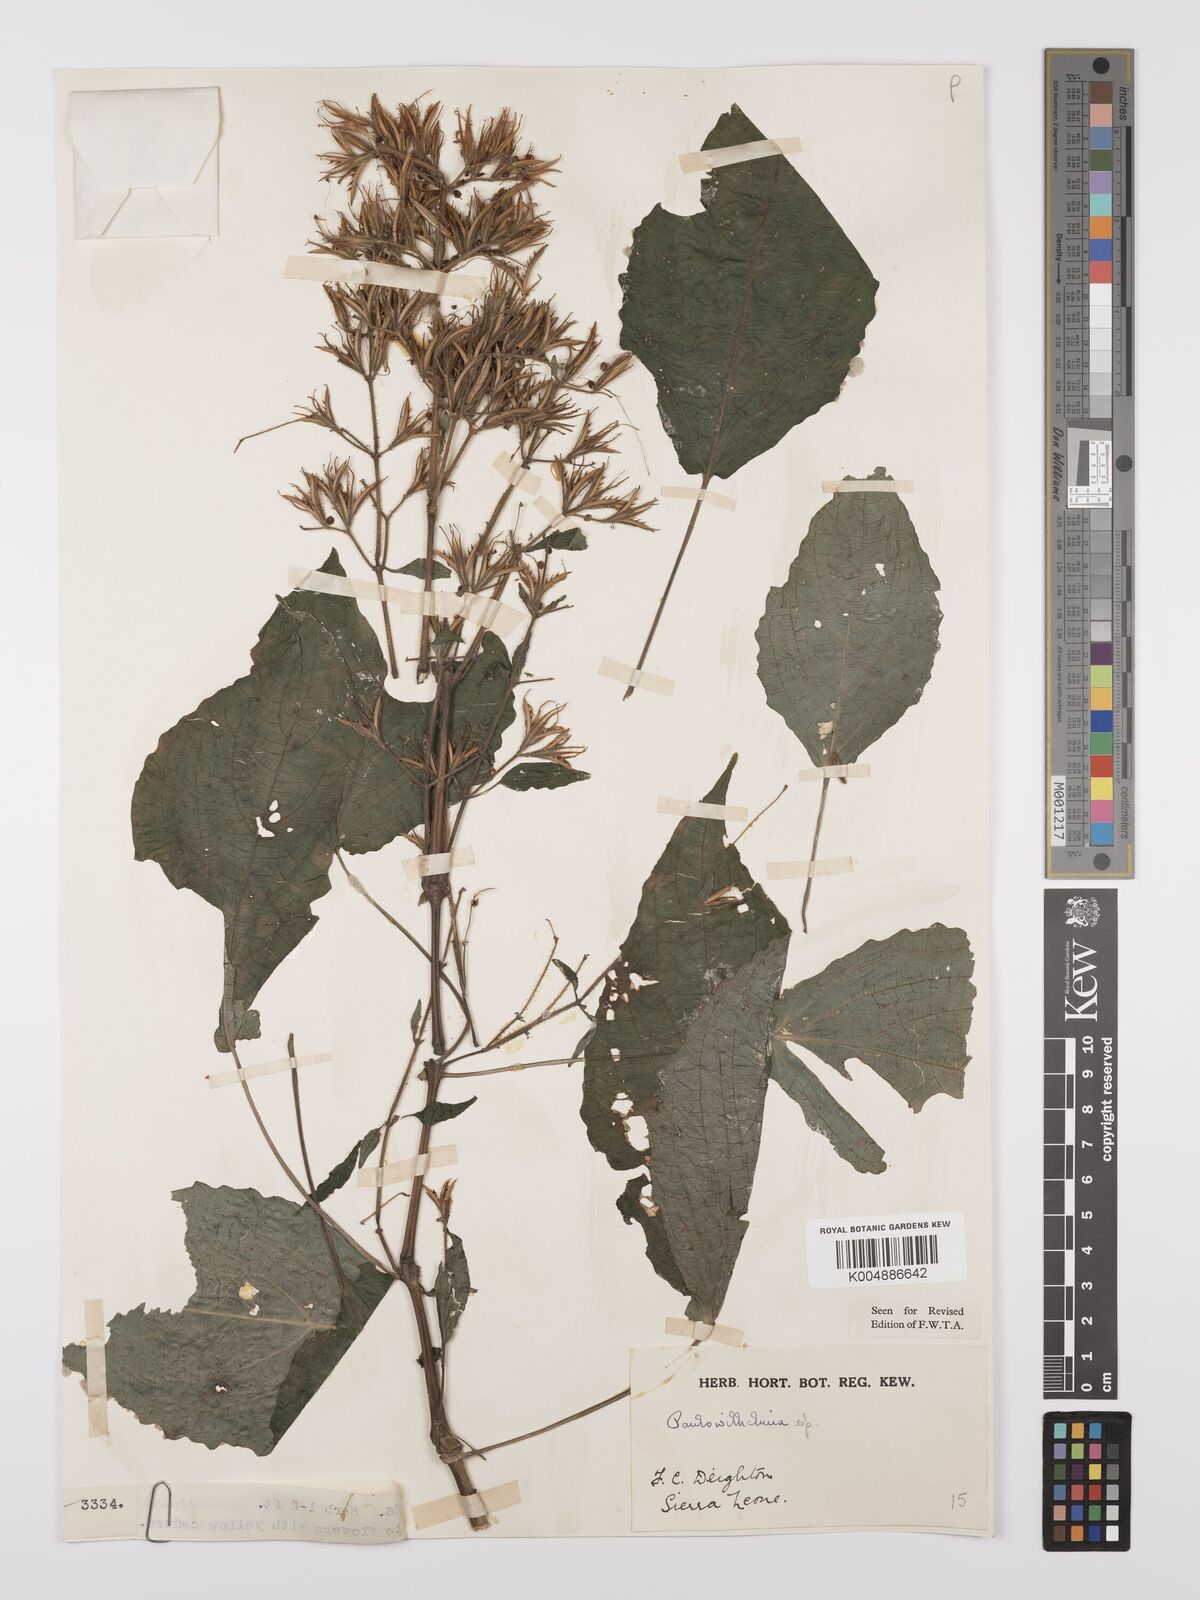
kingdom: Plantae
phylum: Tracheophyta
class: Magnoliopsida
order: Lamiales
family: Acanthaceae
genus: Eremomastax
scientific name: Eremomastax speciosa
